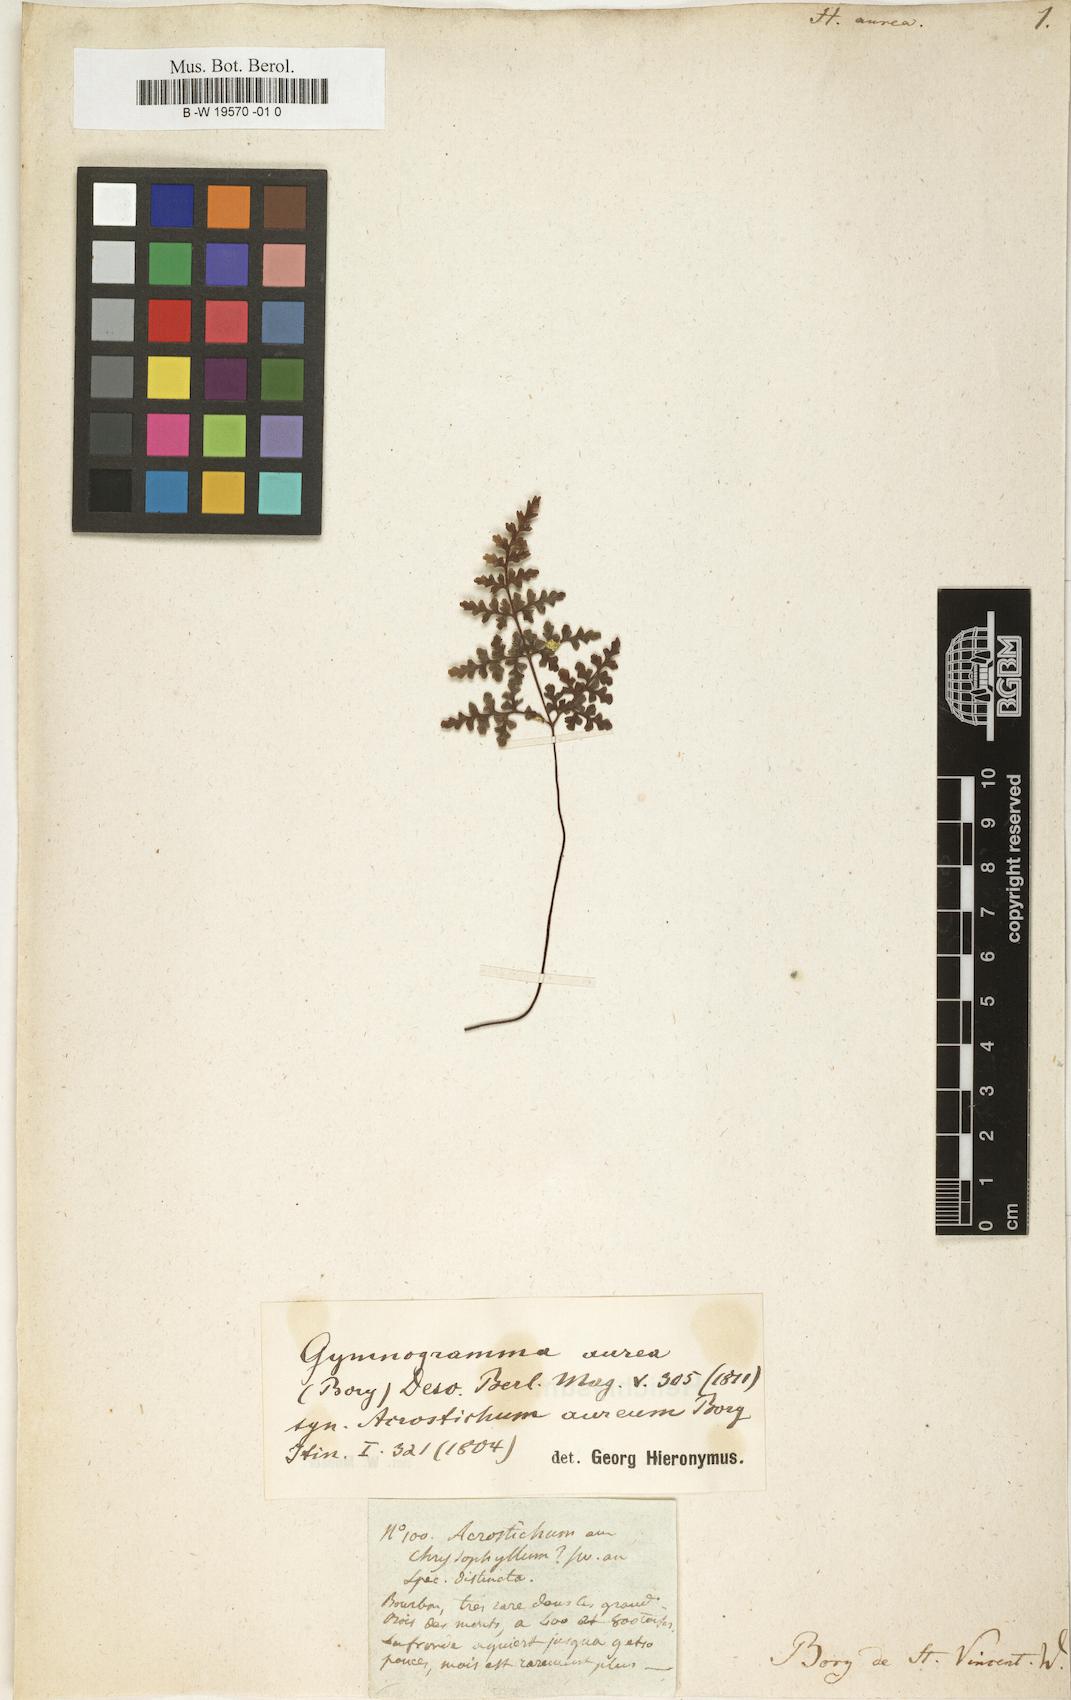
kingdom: Plantae
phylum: Tracheophyta
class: Polypodiopsida
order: Polypodiales
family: Pteridaceae
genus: Cerosora
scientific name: Cerosora argentea
